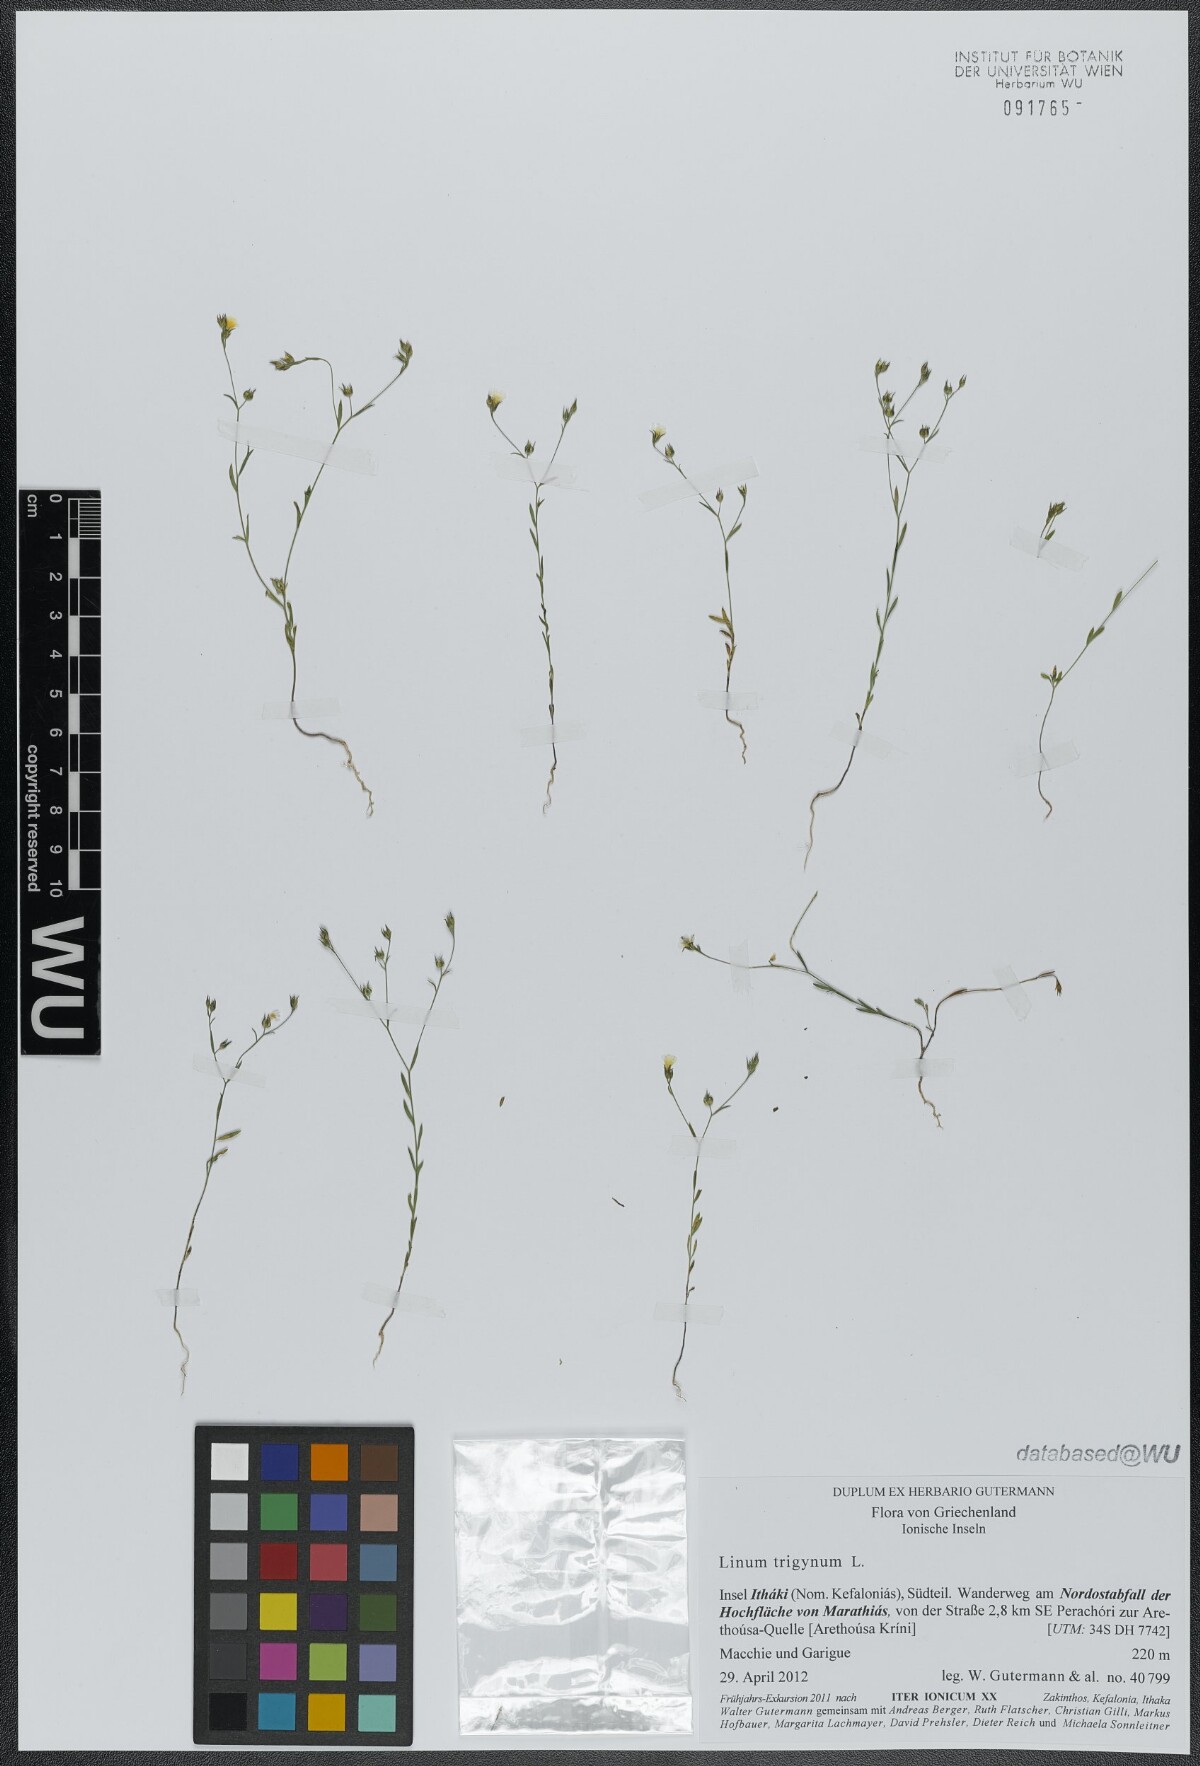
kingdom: Plantae
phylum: Tracheophyta
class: Magnoliopsida
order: Malpighiales
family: Linaceae
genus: Linum
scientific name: Linum trigynum
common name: French flax
